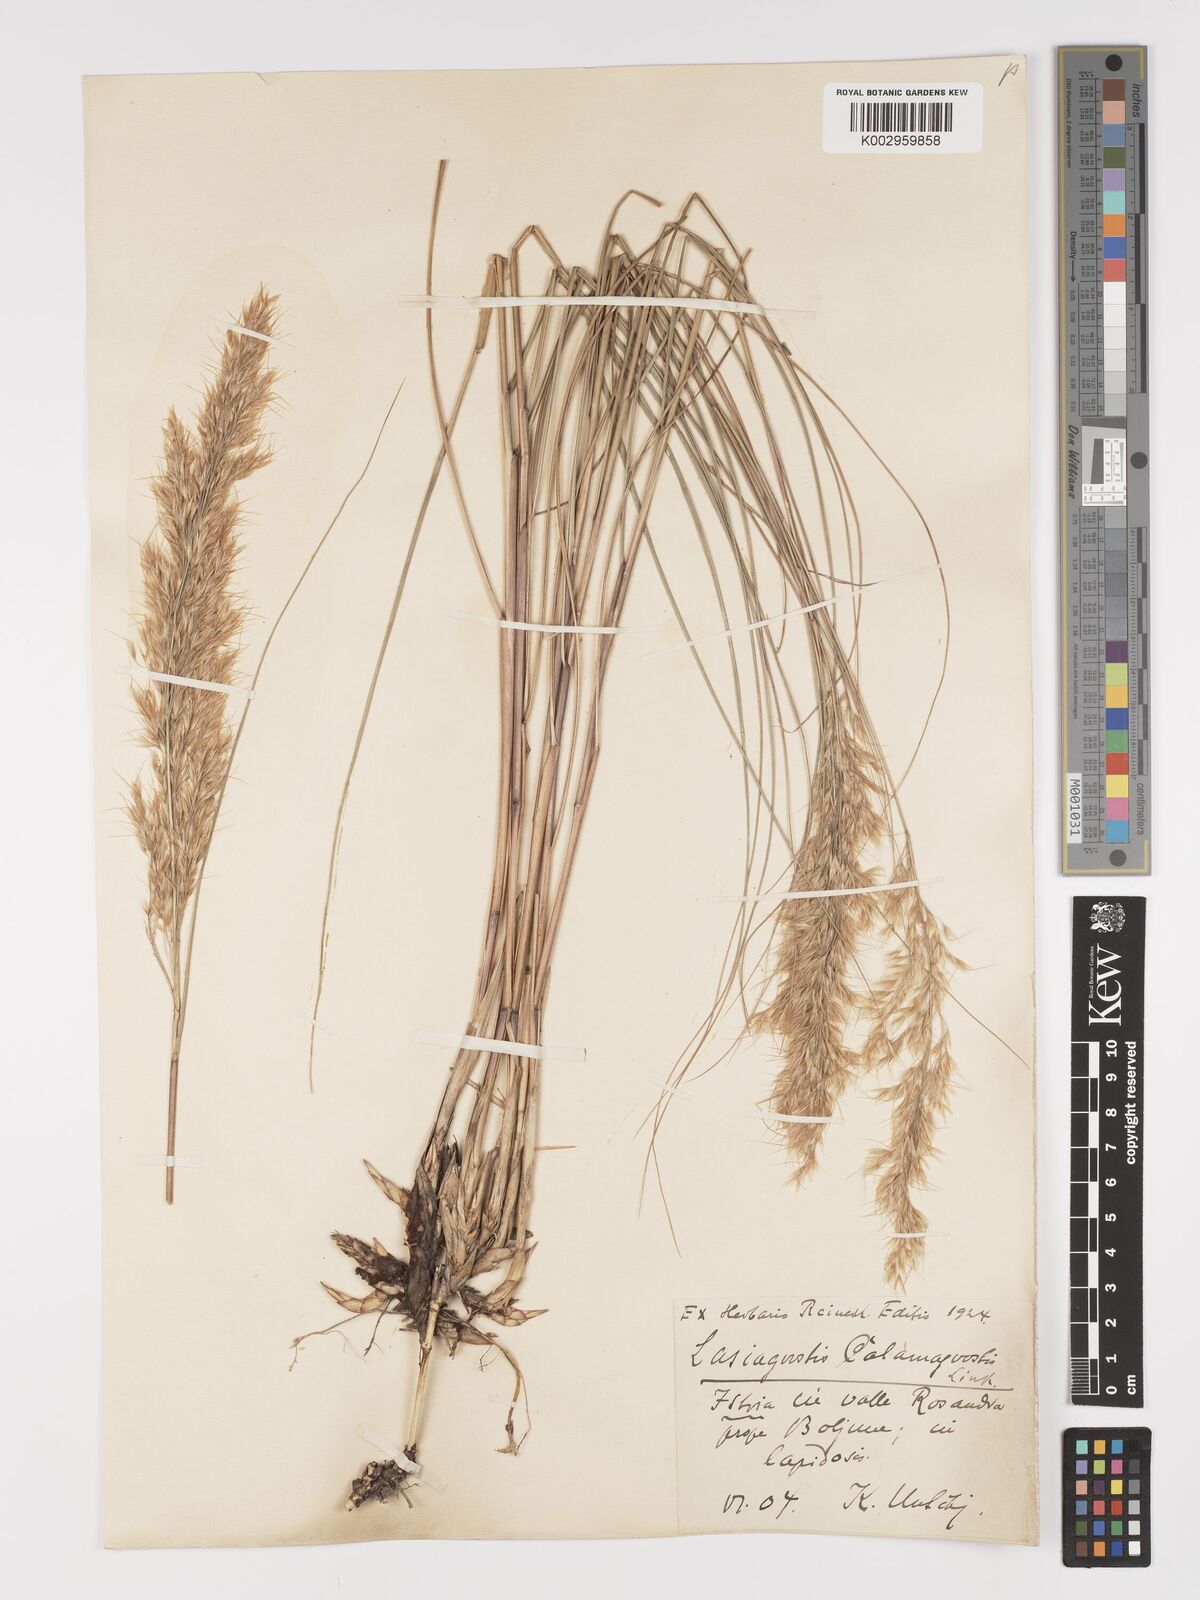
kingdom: Plantae
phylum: Tracheophyta
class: Liliopsida
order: Poales
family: Poaceae
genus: Achnatherum
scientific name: Achnatherum calamagrostis
